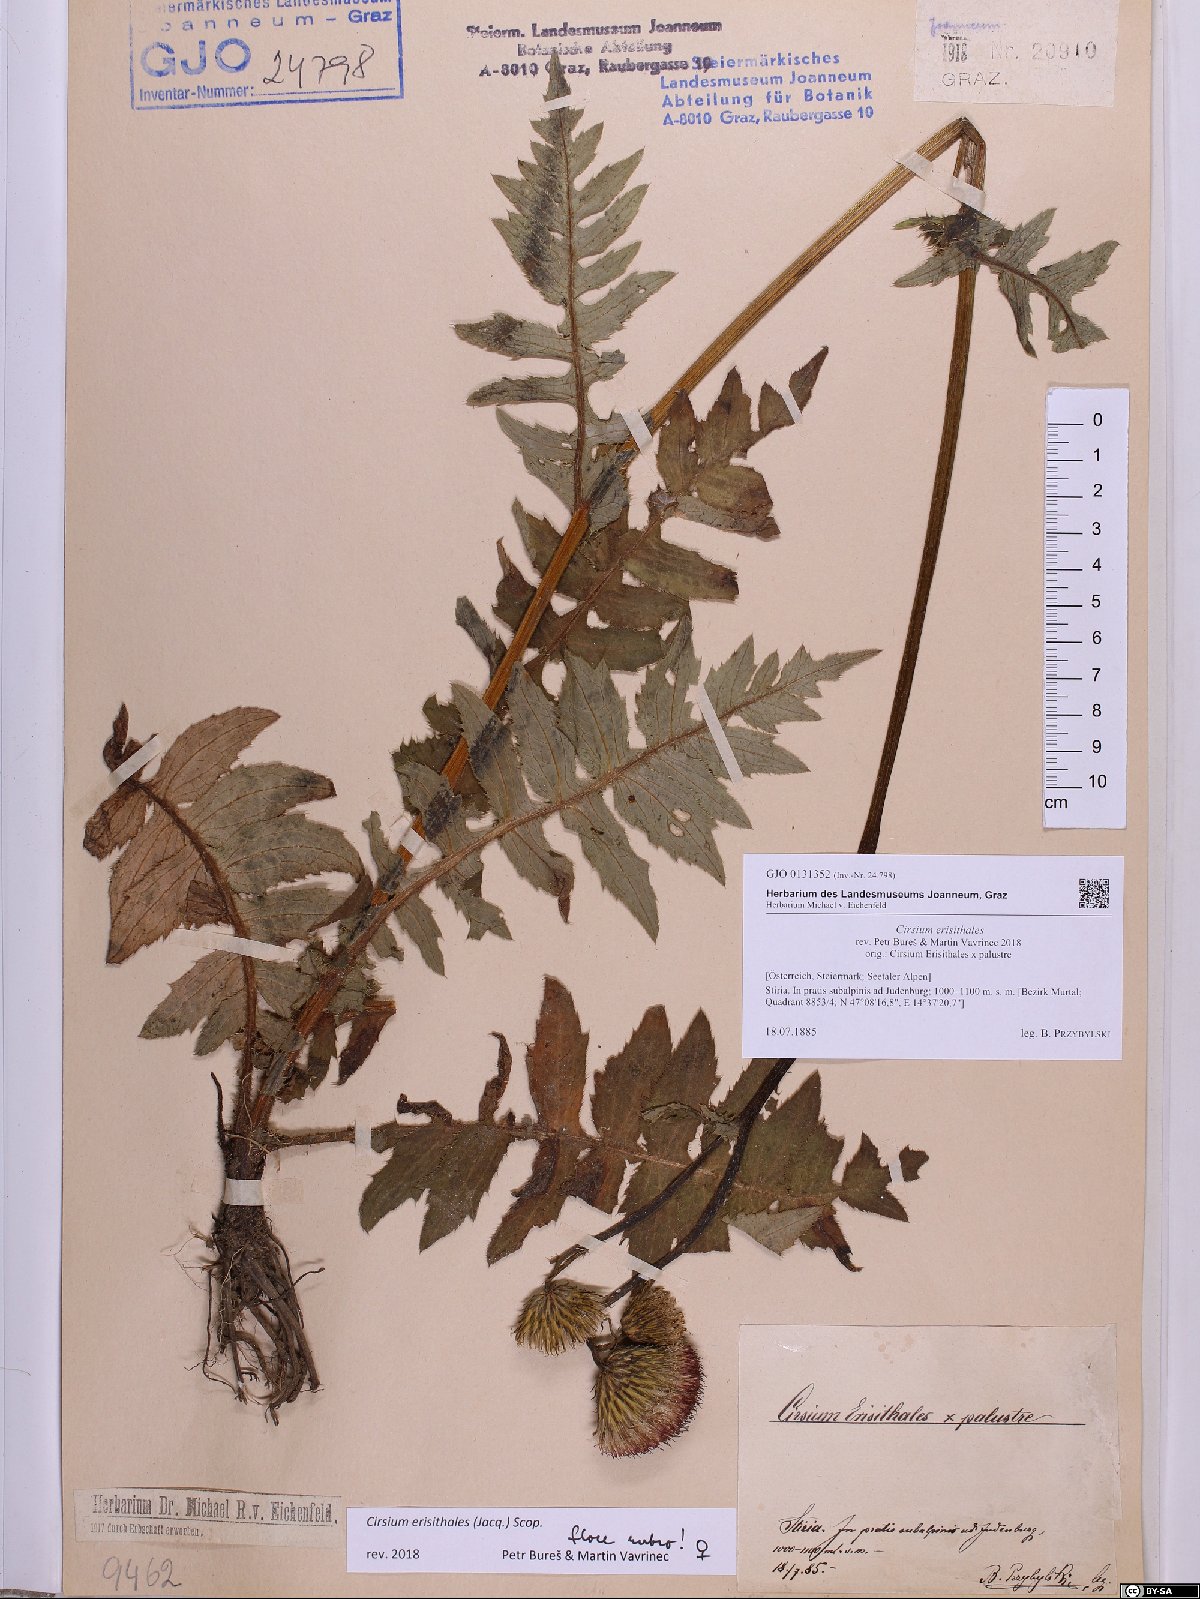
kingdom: Plantae
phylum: Tracheophyta
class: Magnoliopsida
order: Asterales
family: Asteraceae
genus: Cirsium
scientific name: Cirsium erisithales
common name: Yellow thistle
